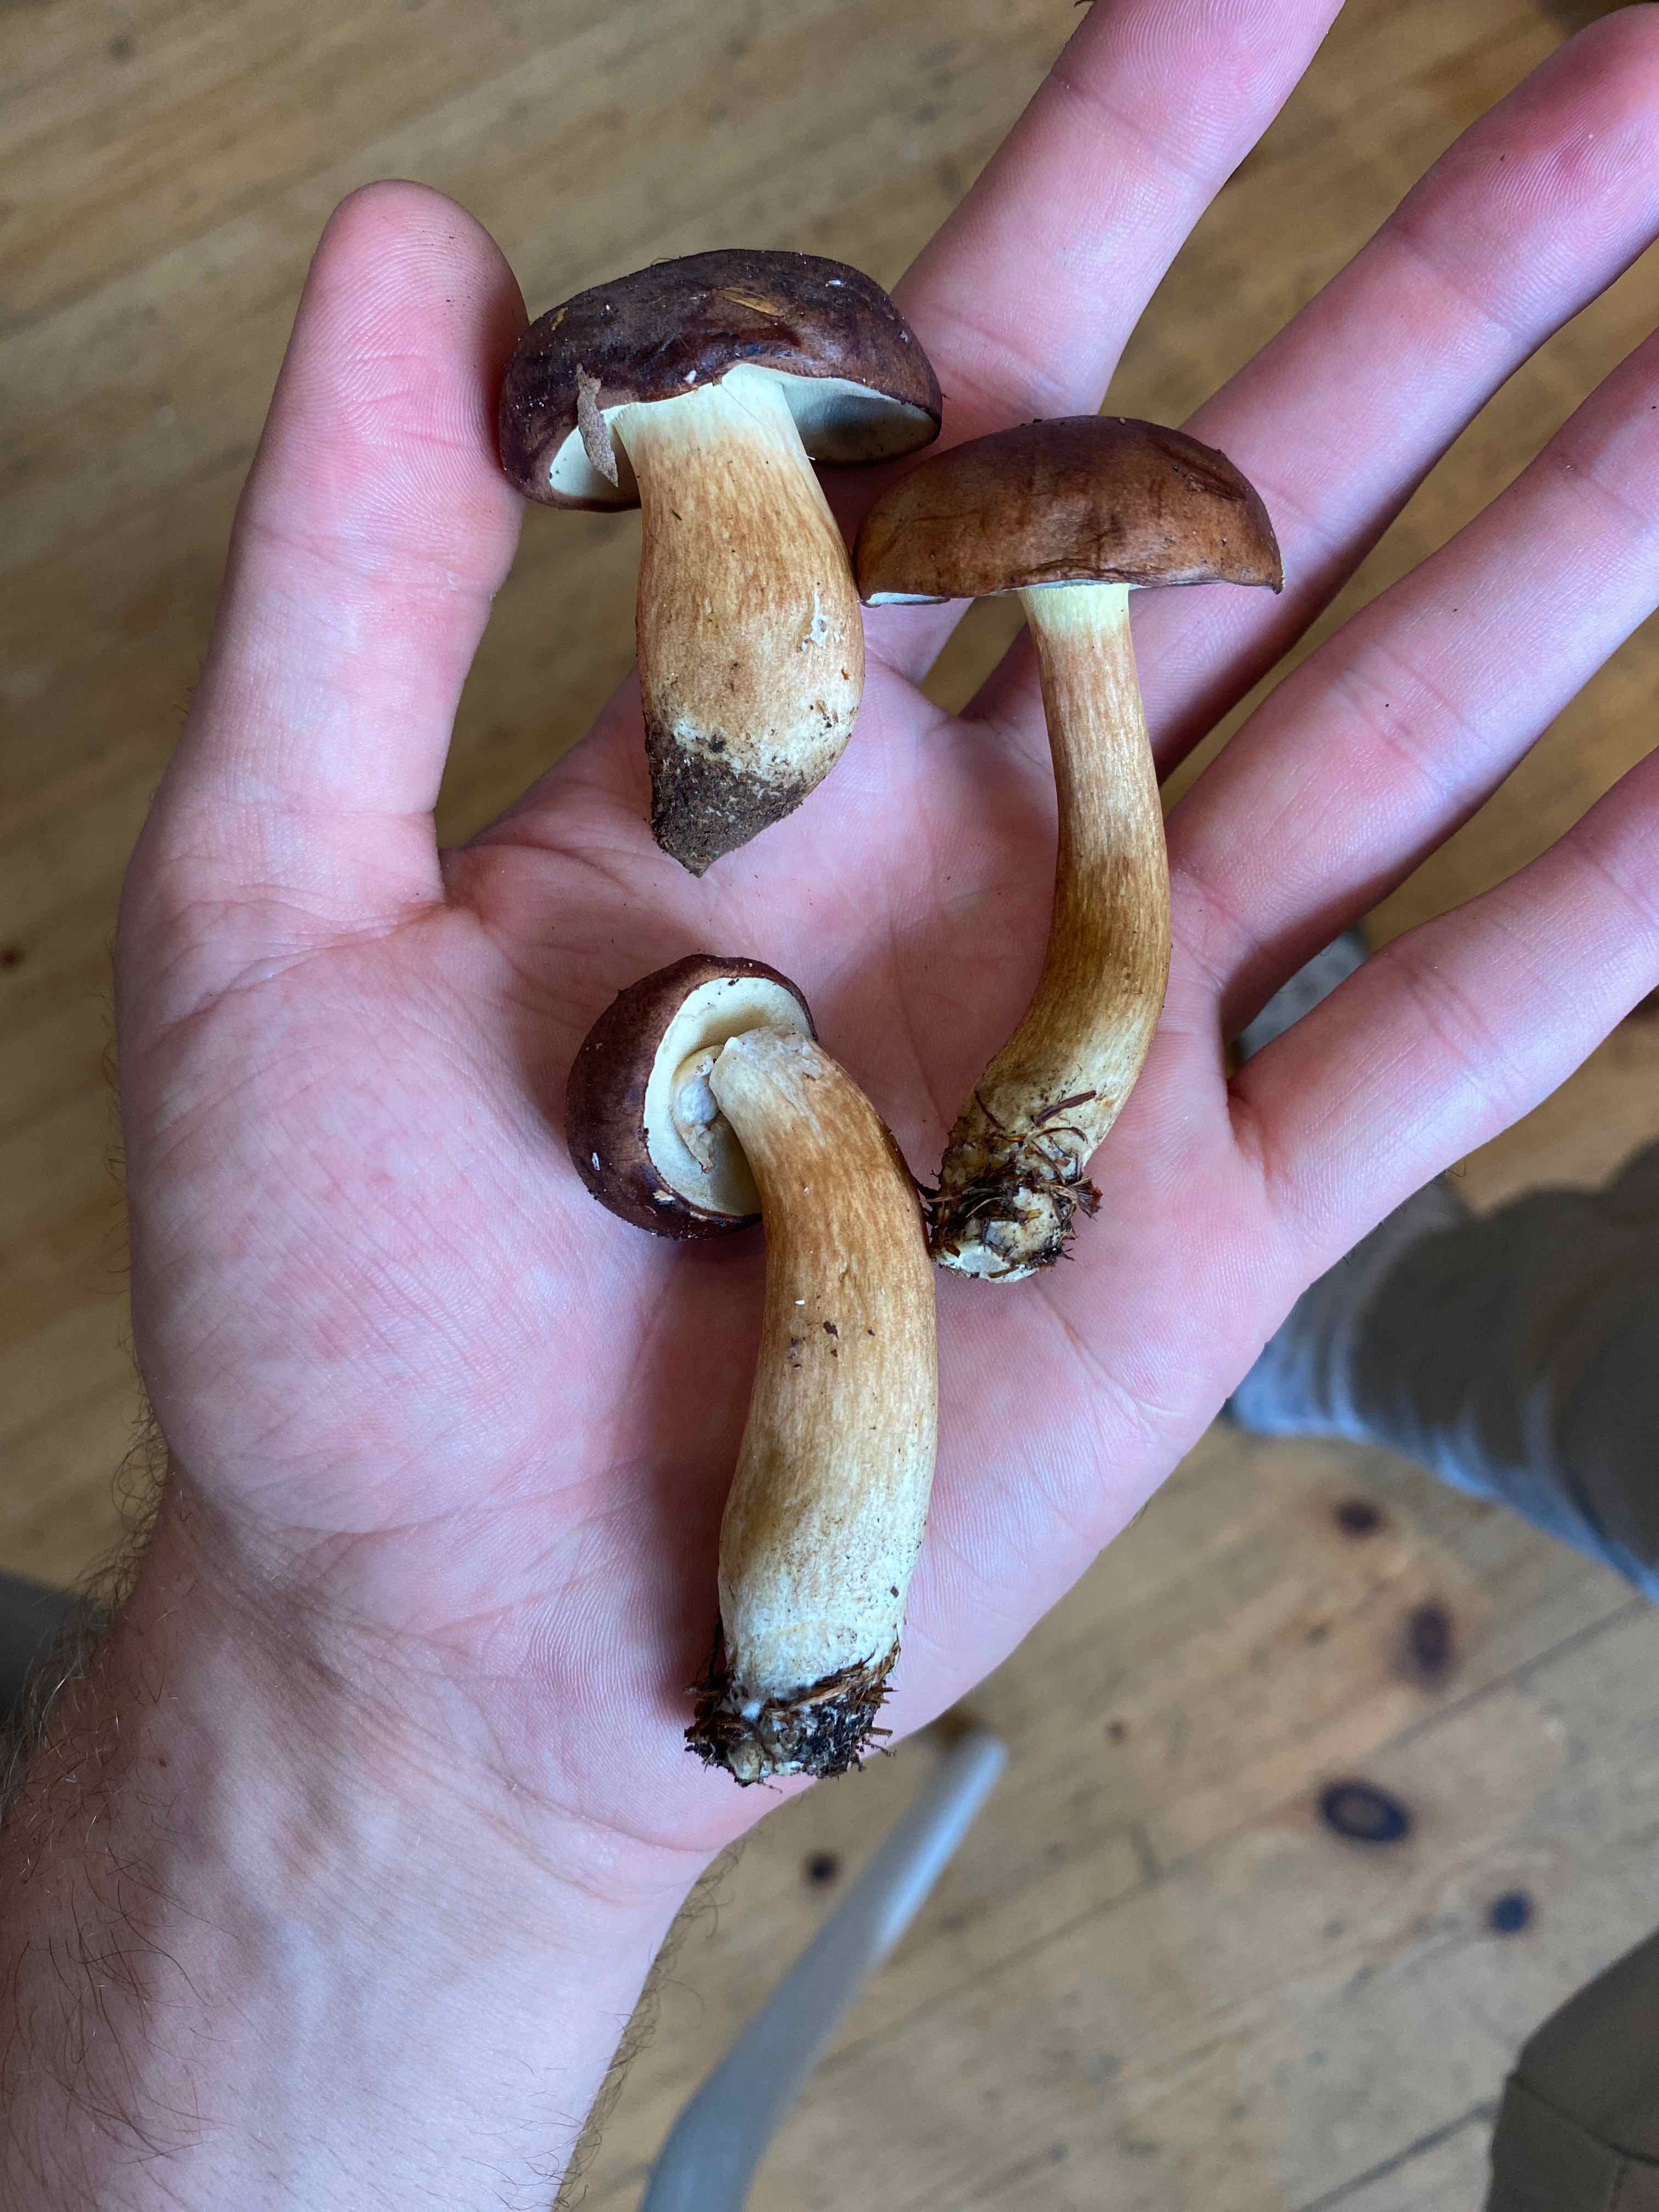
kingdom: Fungi
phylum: Basidiomycota
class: Agaricomycetes
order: Boletales
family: Boletaceae
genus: Imleria
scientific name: Imleria badia
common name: brunstokket rørhat
